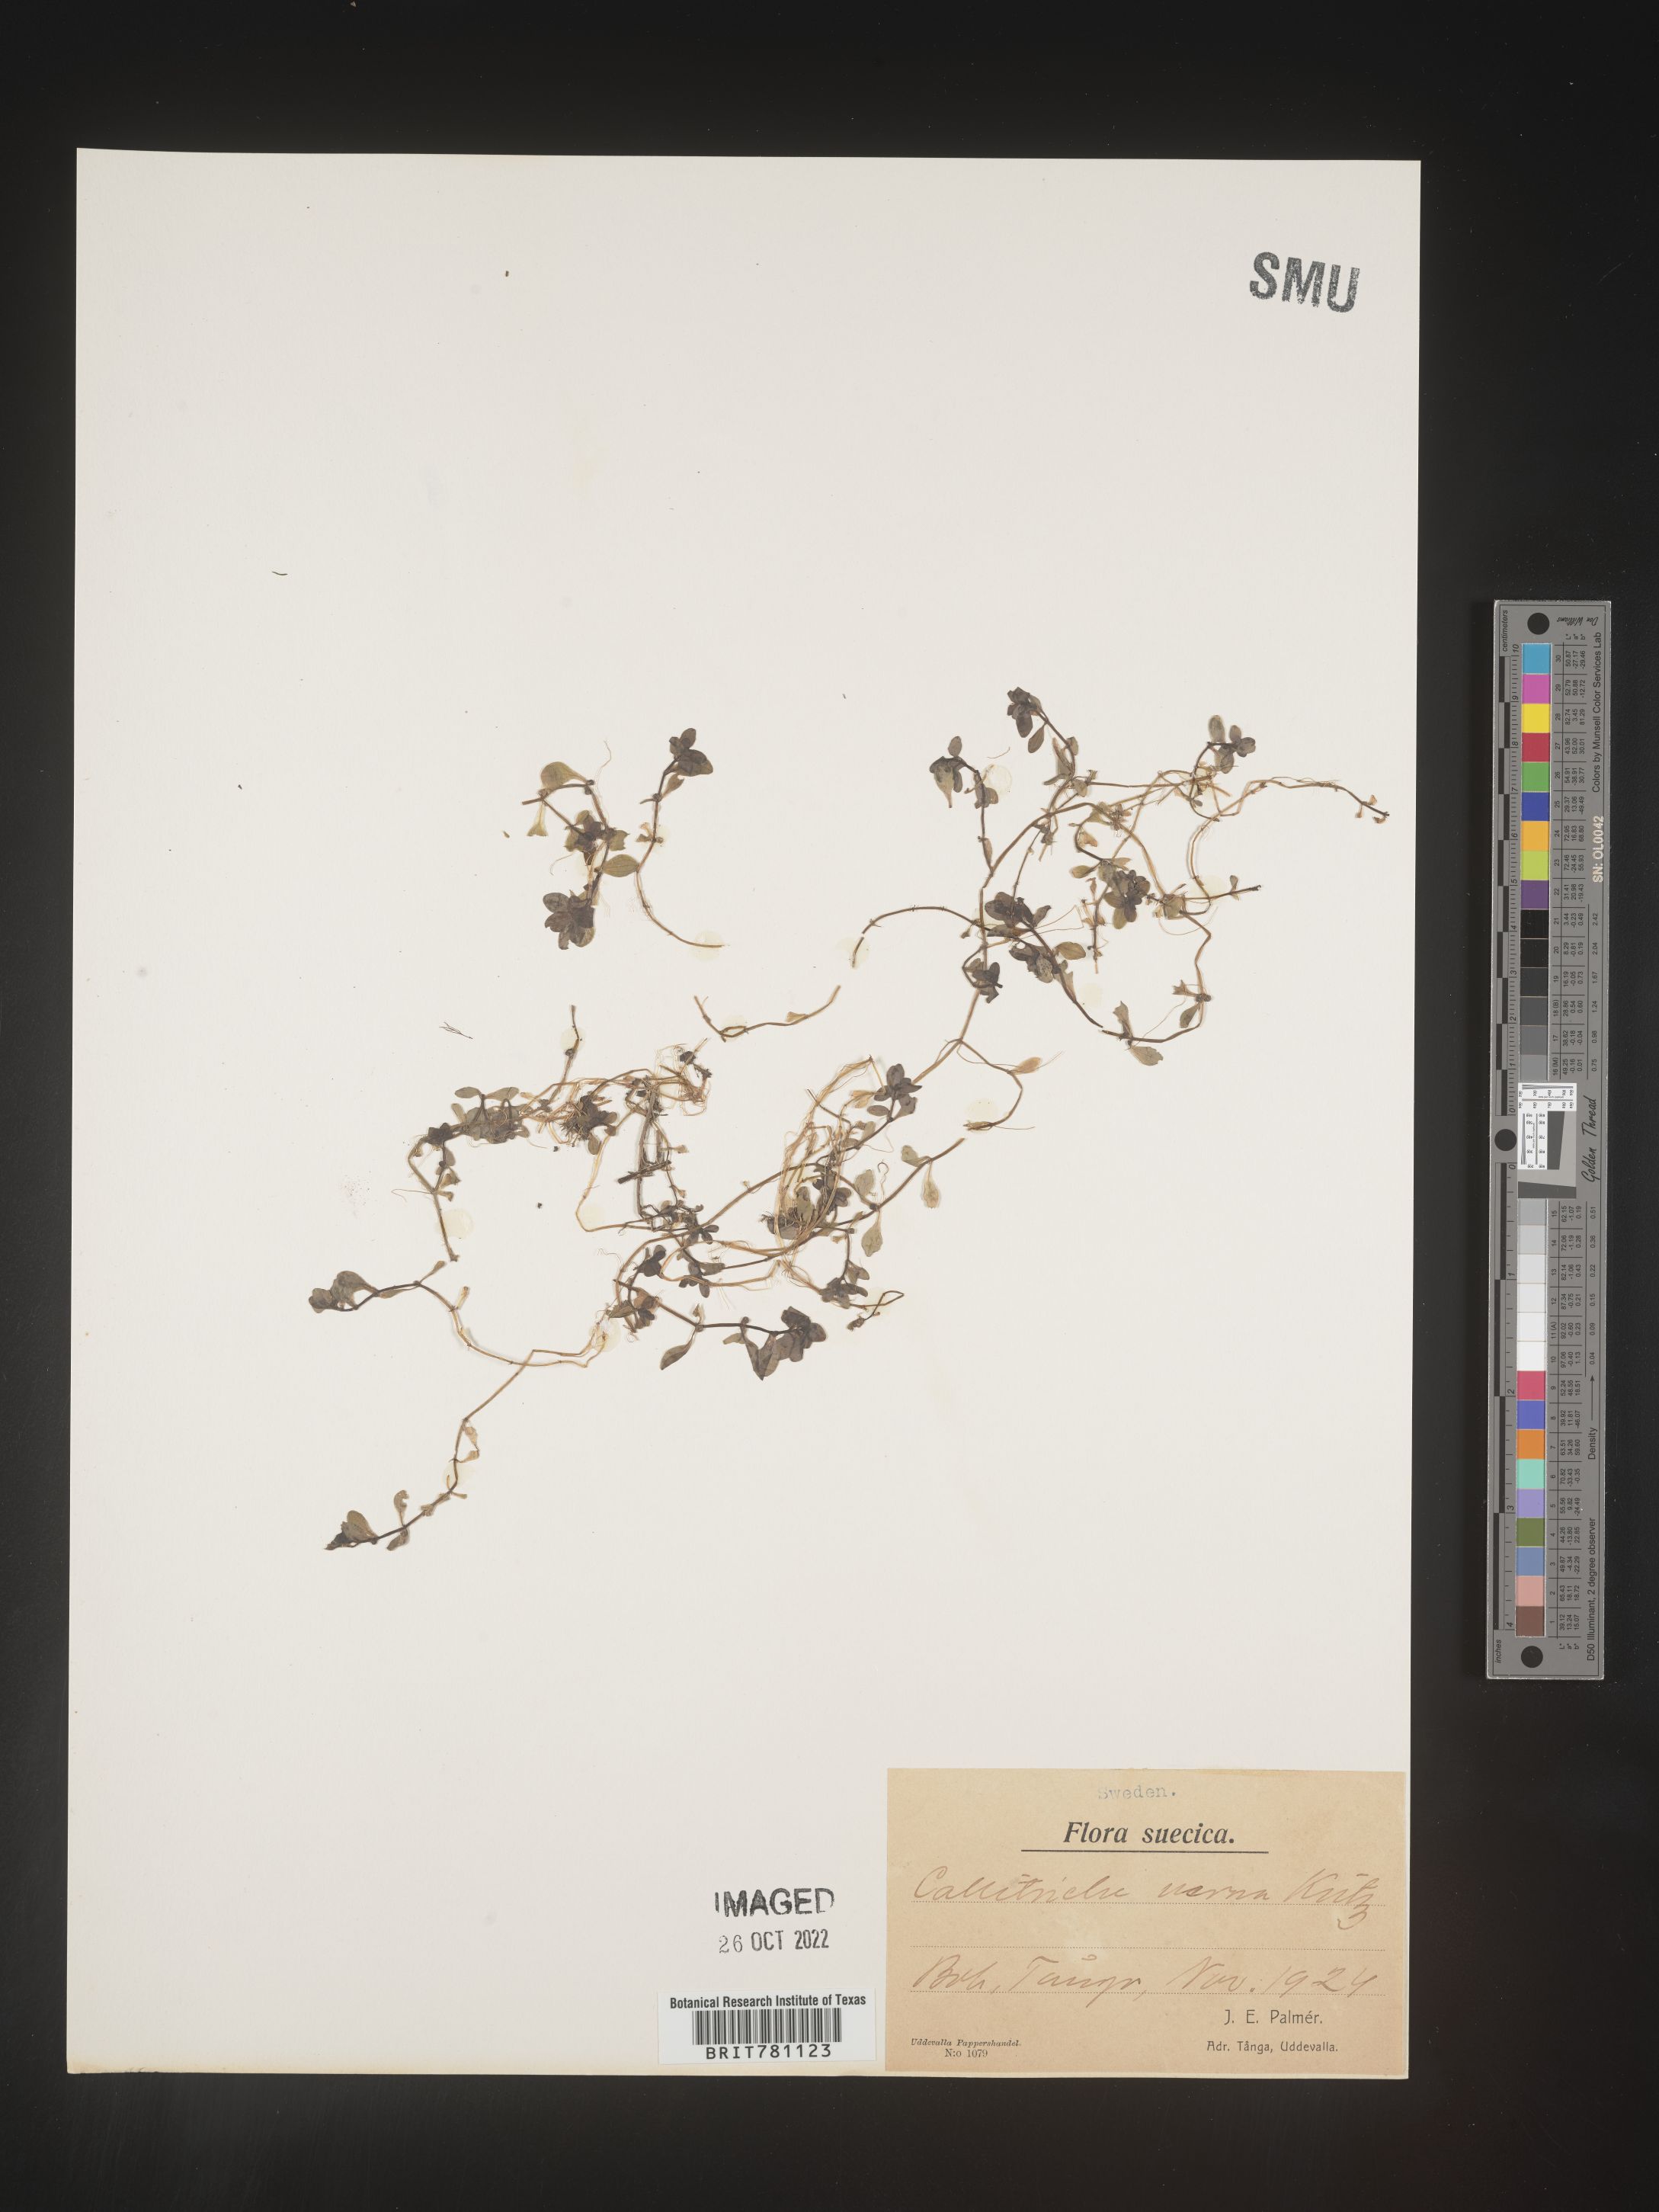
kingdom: Plantae
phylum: Tracheophyta
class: Magnoliopsida
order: Lamiales
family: Plantaginaceae
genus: Callitriche
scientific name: Callitriche
